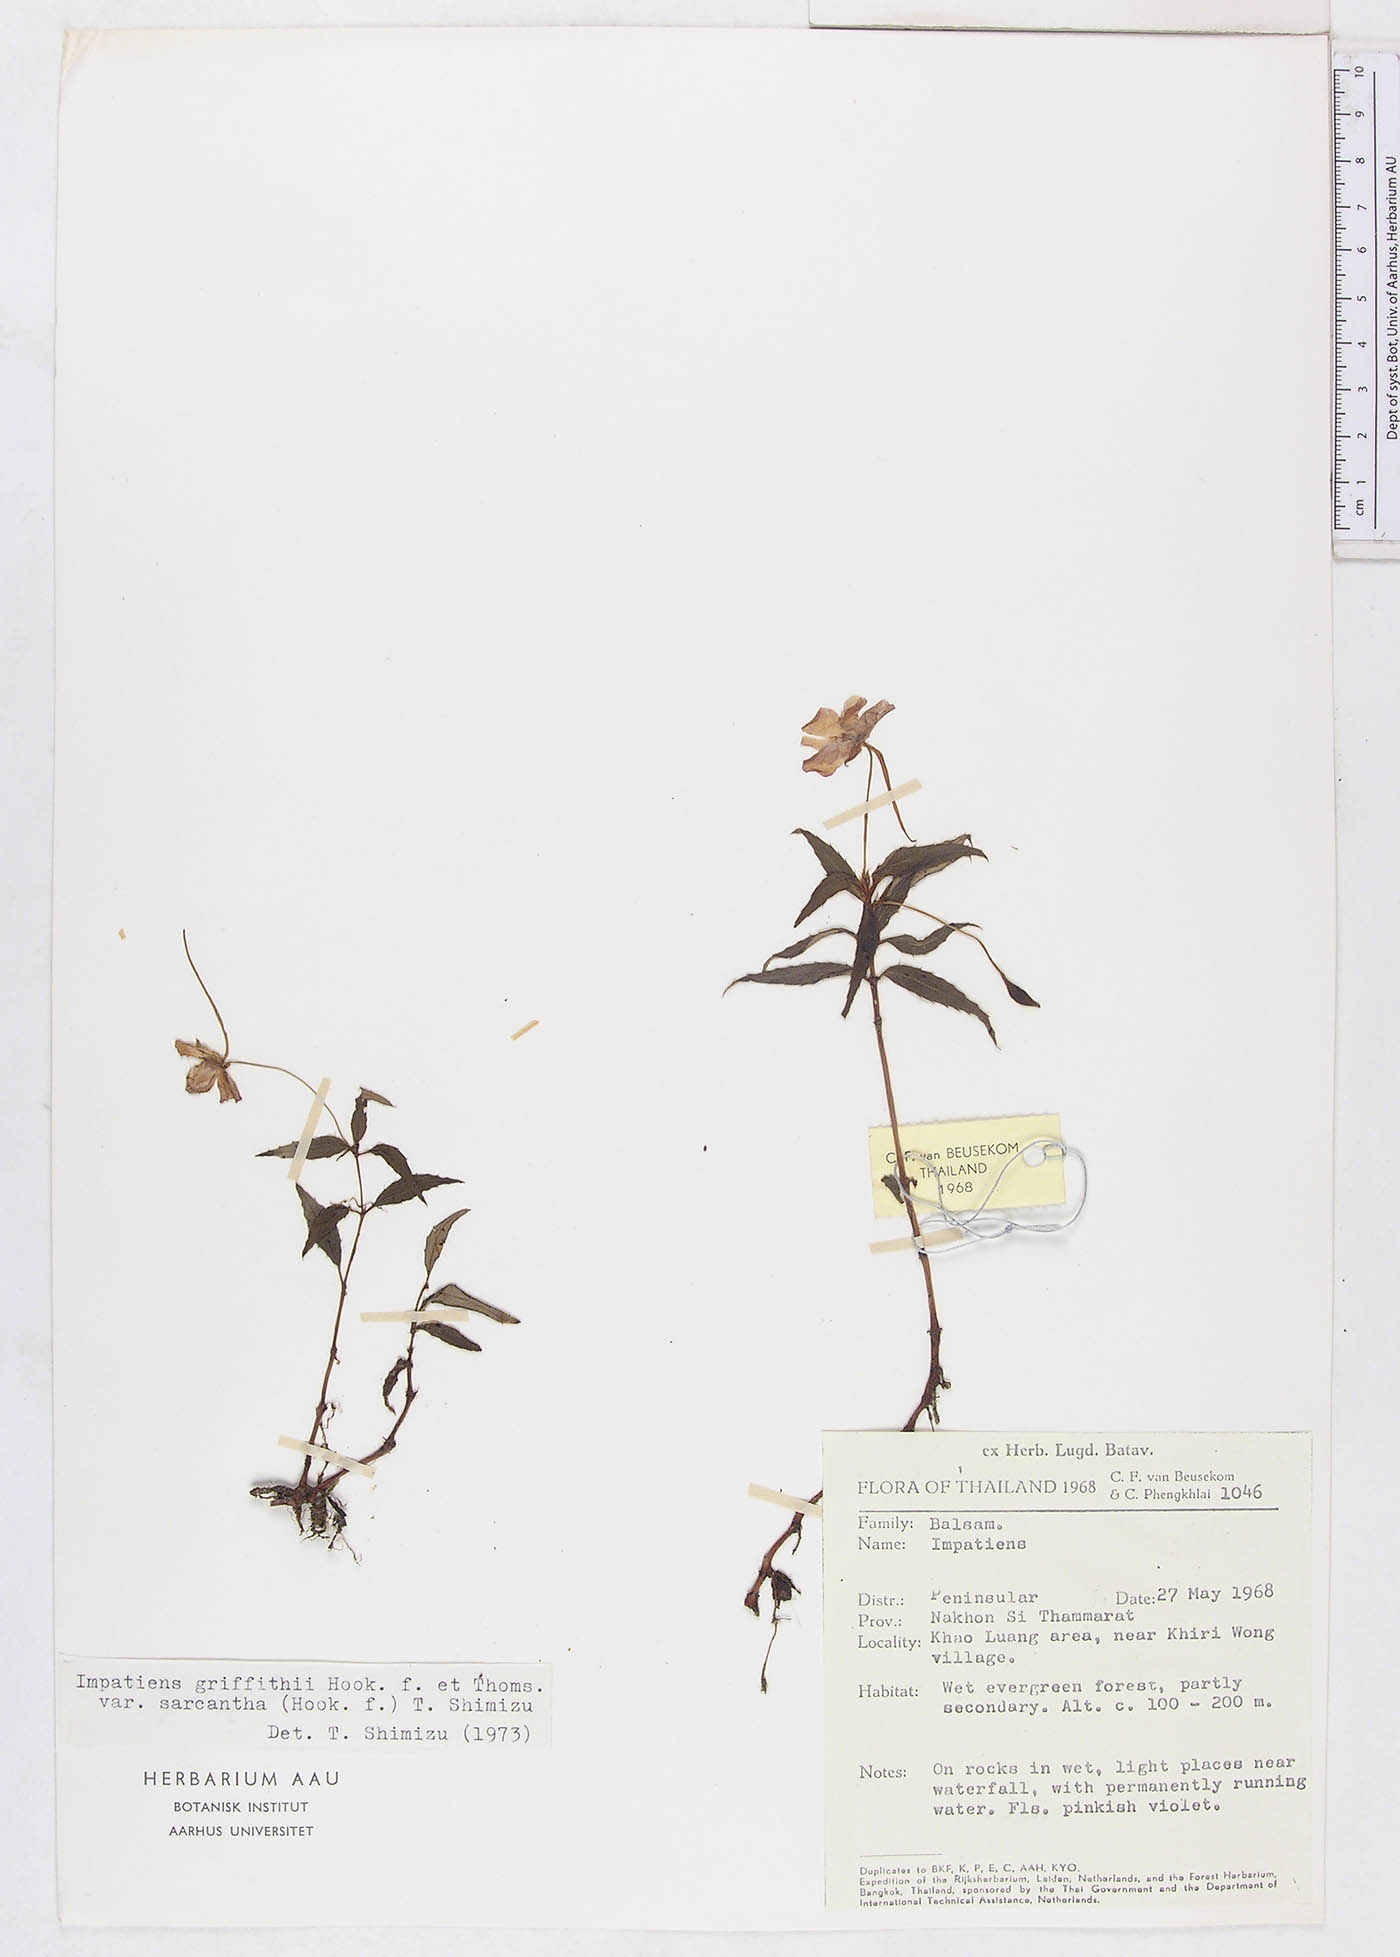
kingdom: Plantae
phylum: Tracheophyta
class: Magnoliopsida
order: Ericales
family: Balsaminaceae
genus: Impatiens
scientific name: Impatiens griffithii
